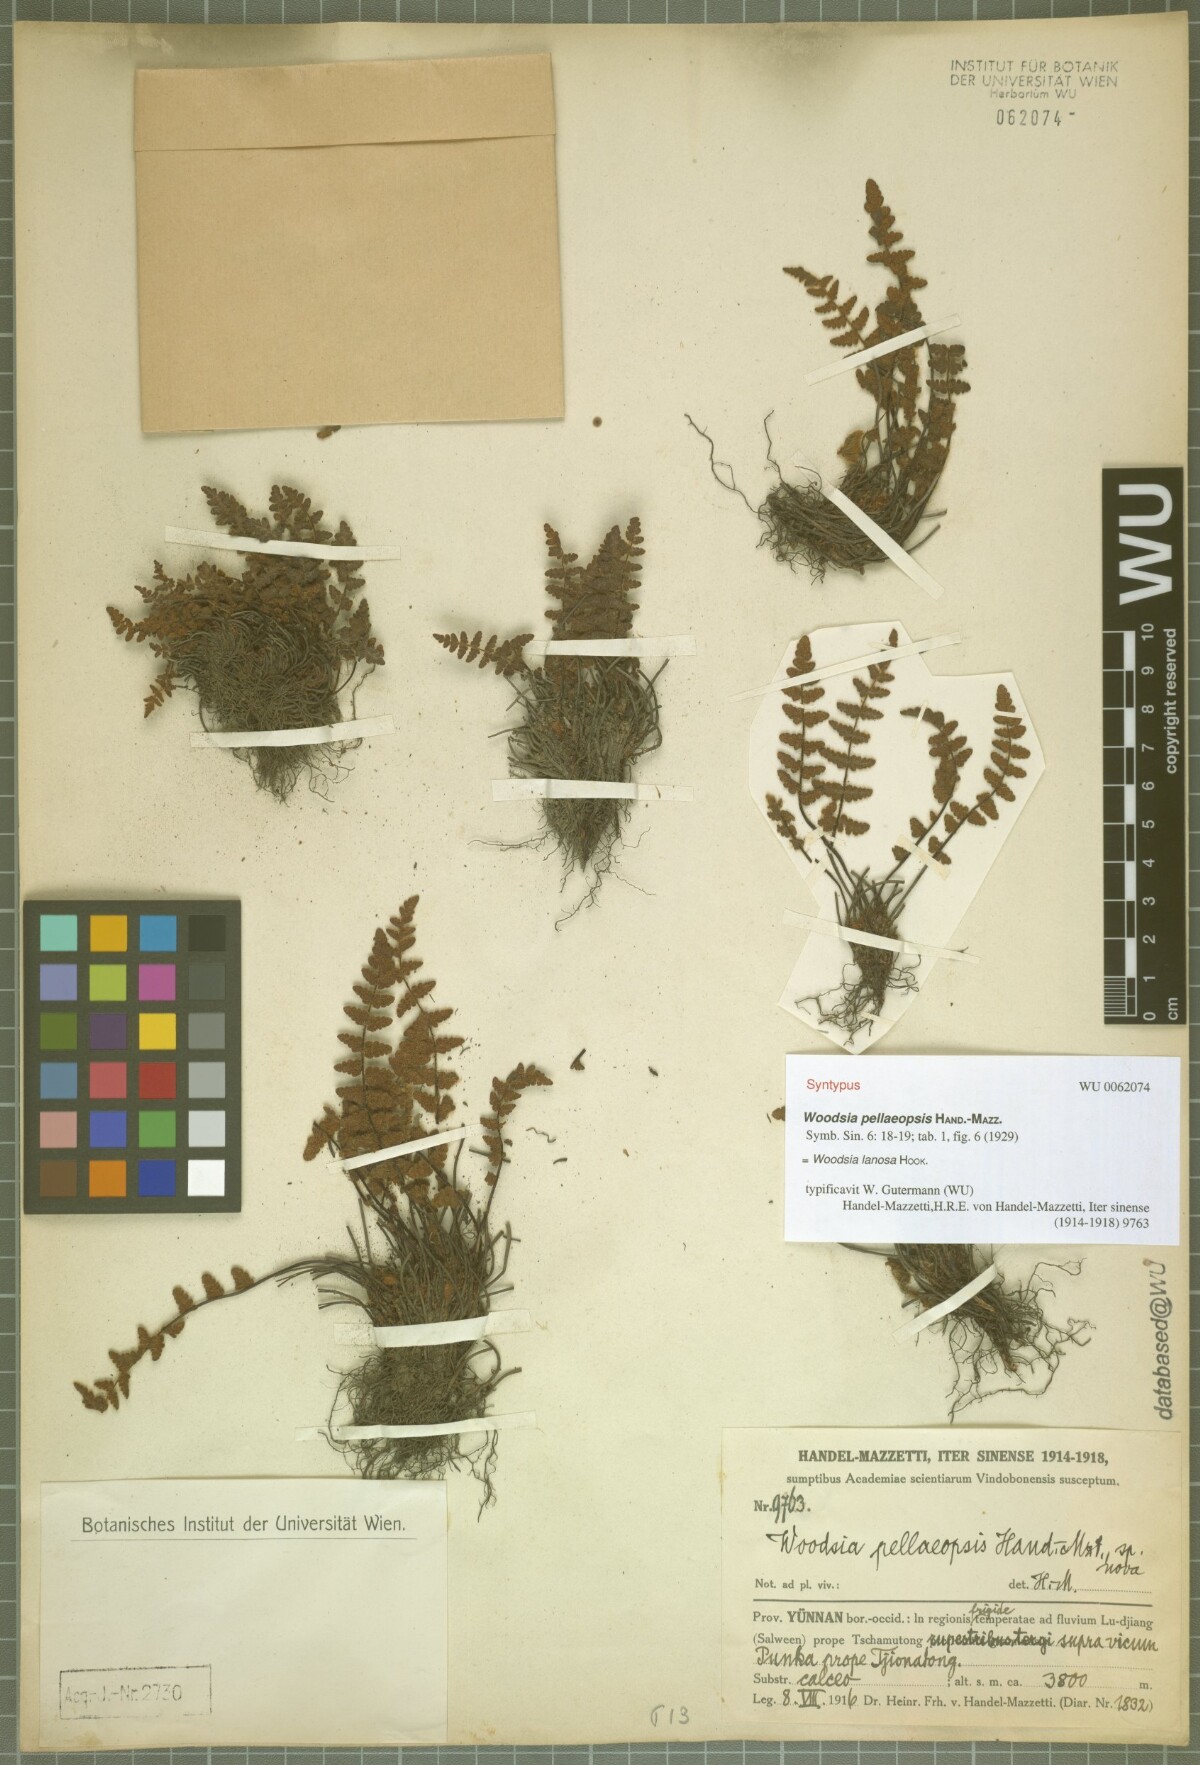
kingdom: Plantae
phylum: Tracheophyta
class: Polypodiopsida
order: Polypodiales
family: Woodsiaceae
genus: Woodsia
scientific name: Woodsia lanosa
